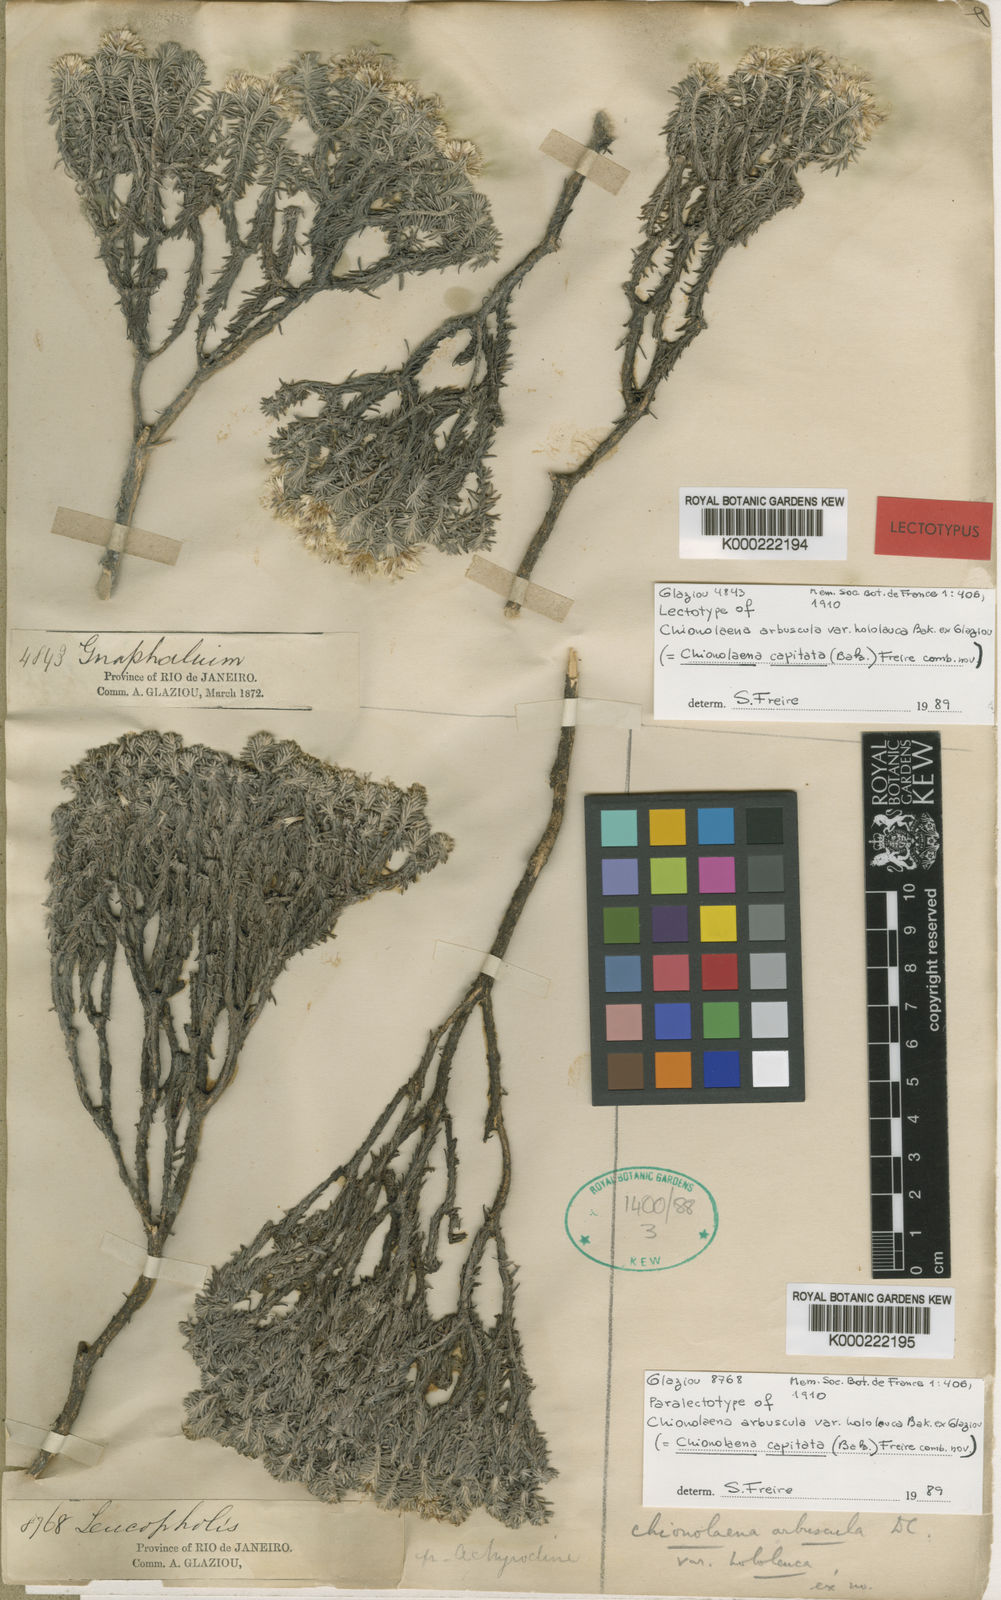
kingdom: Plantae
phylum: Tracheophyta
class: Magnoliopsida
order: Asterales
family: Asteraceae
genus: Chionolaena
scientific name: Chionolaena capitata
